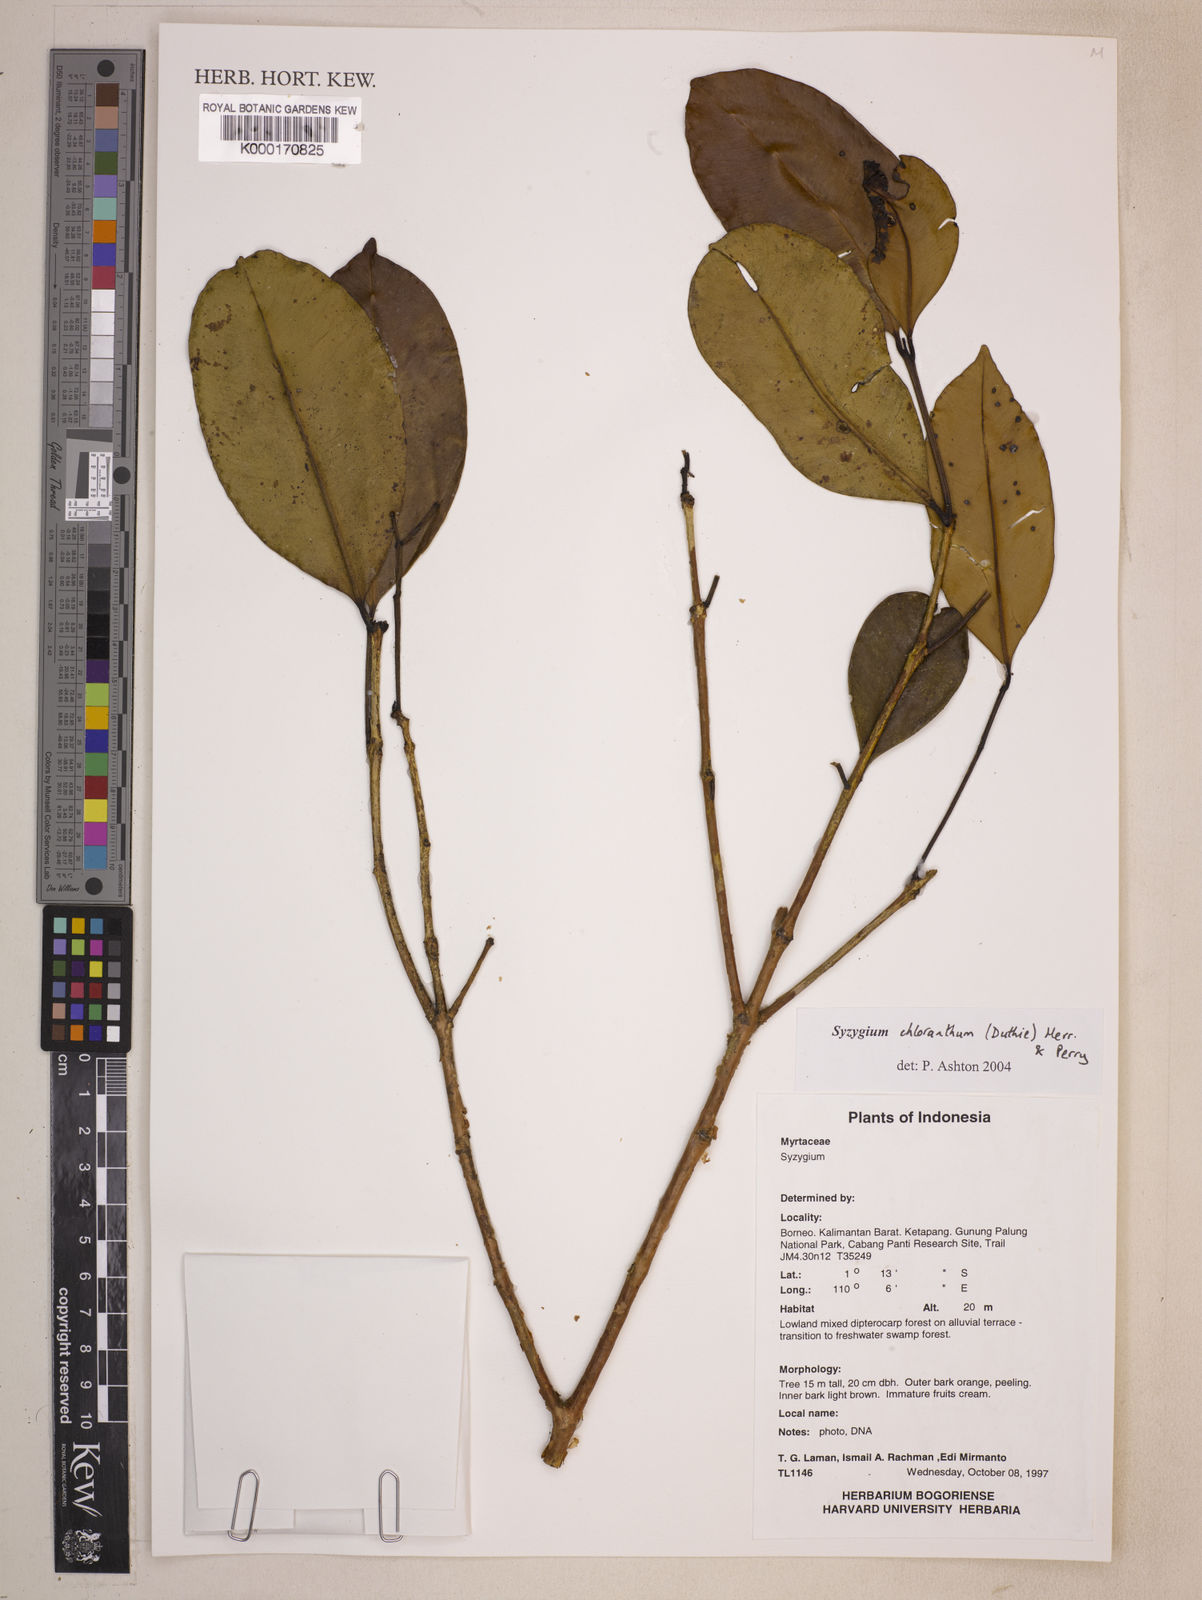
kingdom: Plantae
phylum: Tracheophyta
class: Magnoliopsida
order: Myrtales
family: Myrtaceae
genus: Syzygium
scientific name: Syzygium chloranthum
